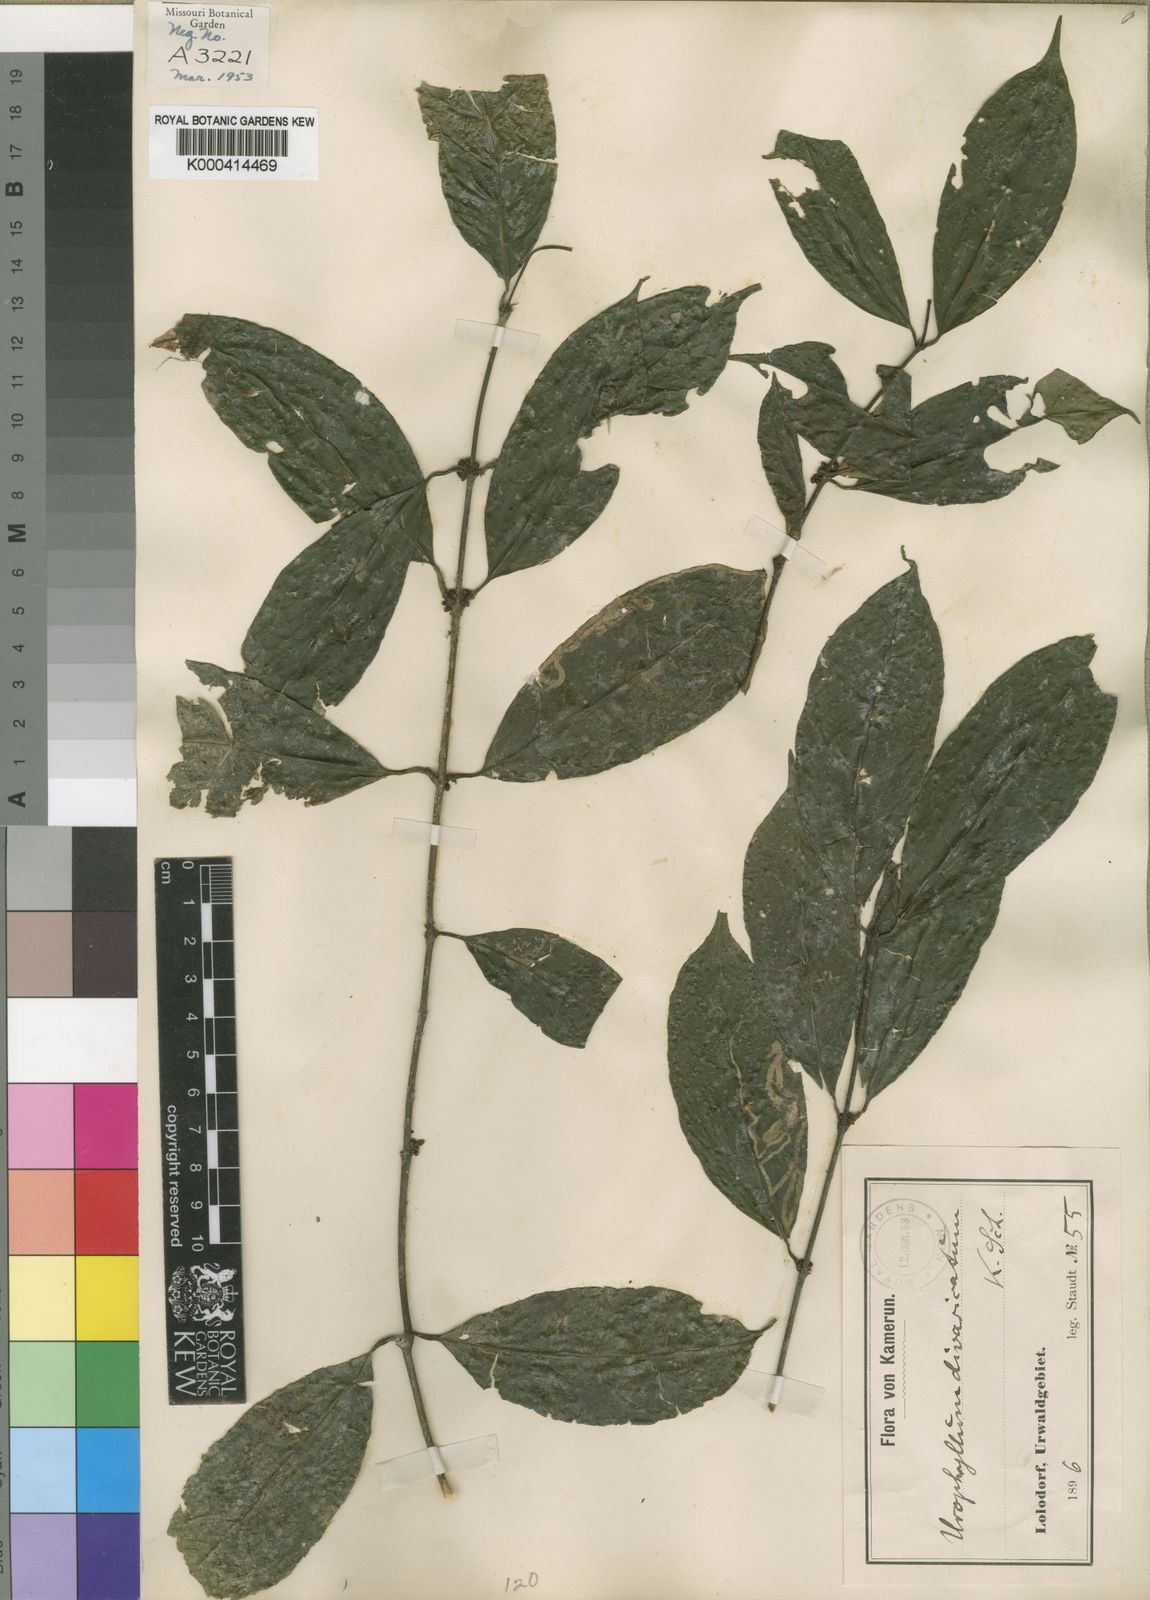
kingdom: Plantae
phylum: Tracheophyta
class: Magnoliopsida
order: Gentianales
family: Rubiaceae
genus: Pauridiantha
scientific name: Pauridiantha divaricata
